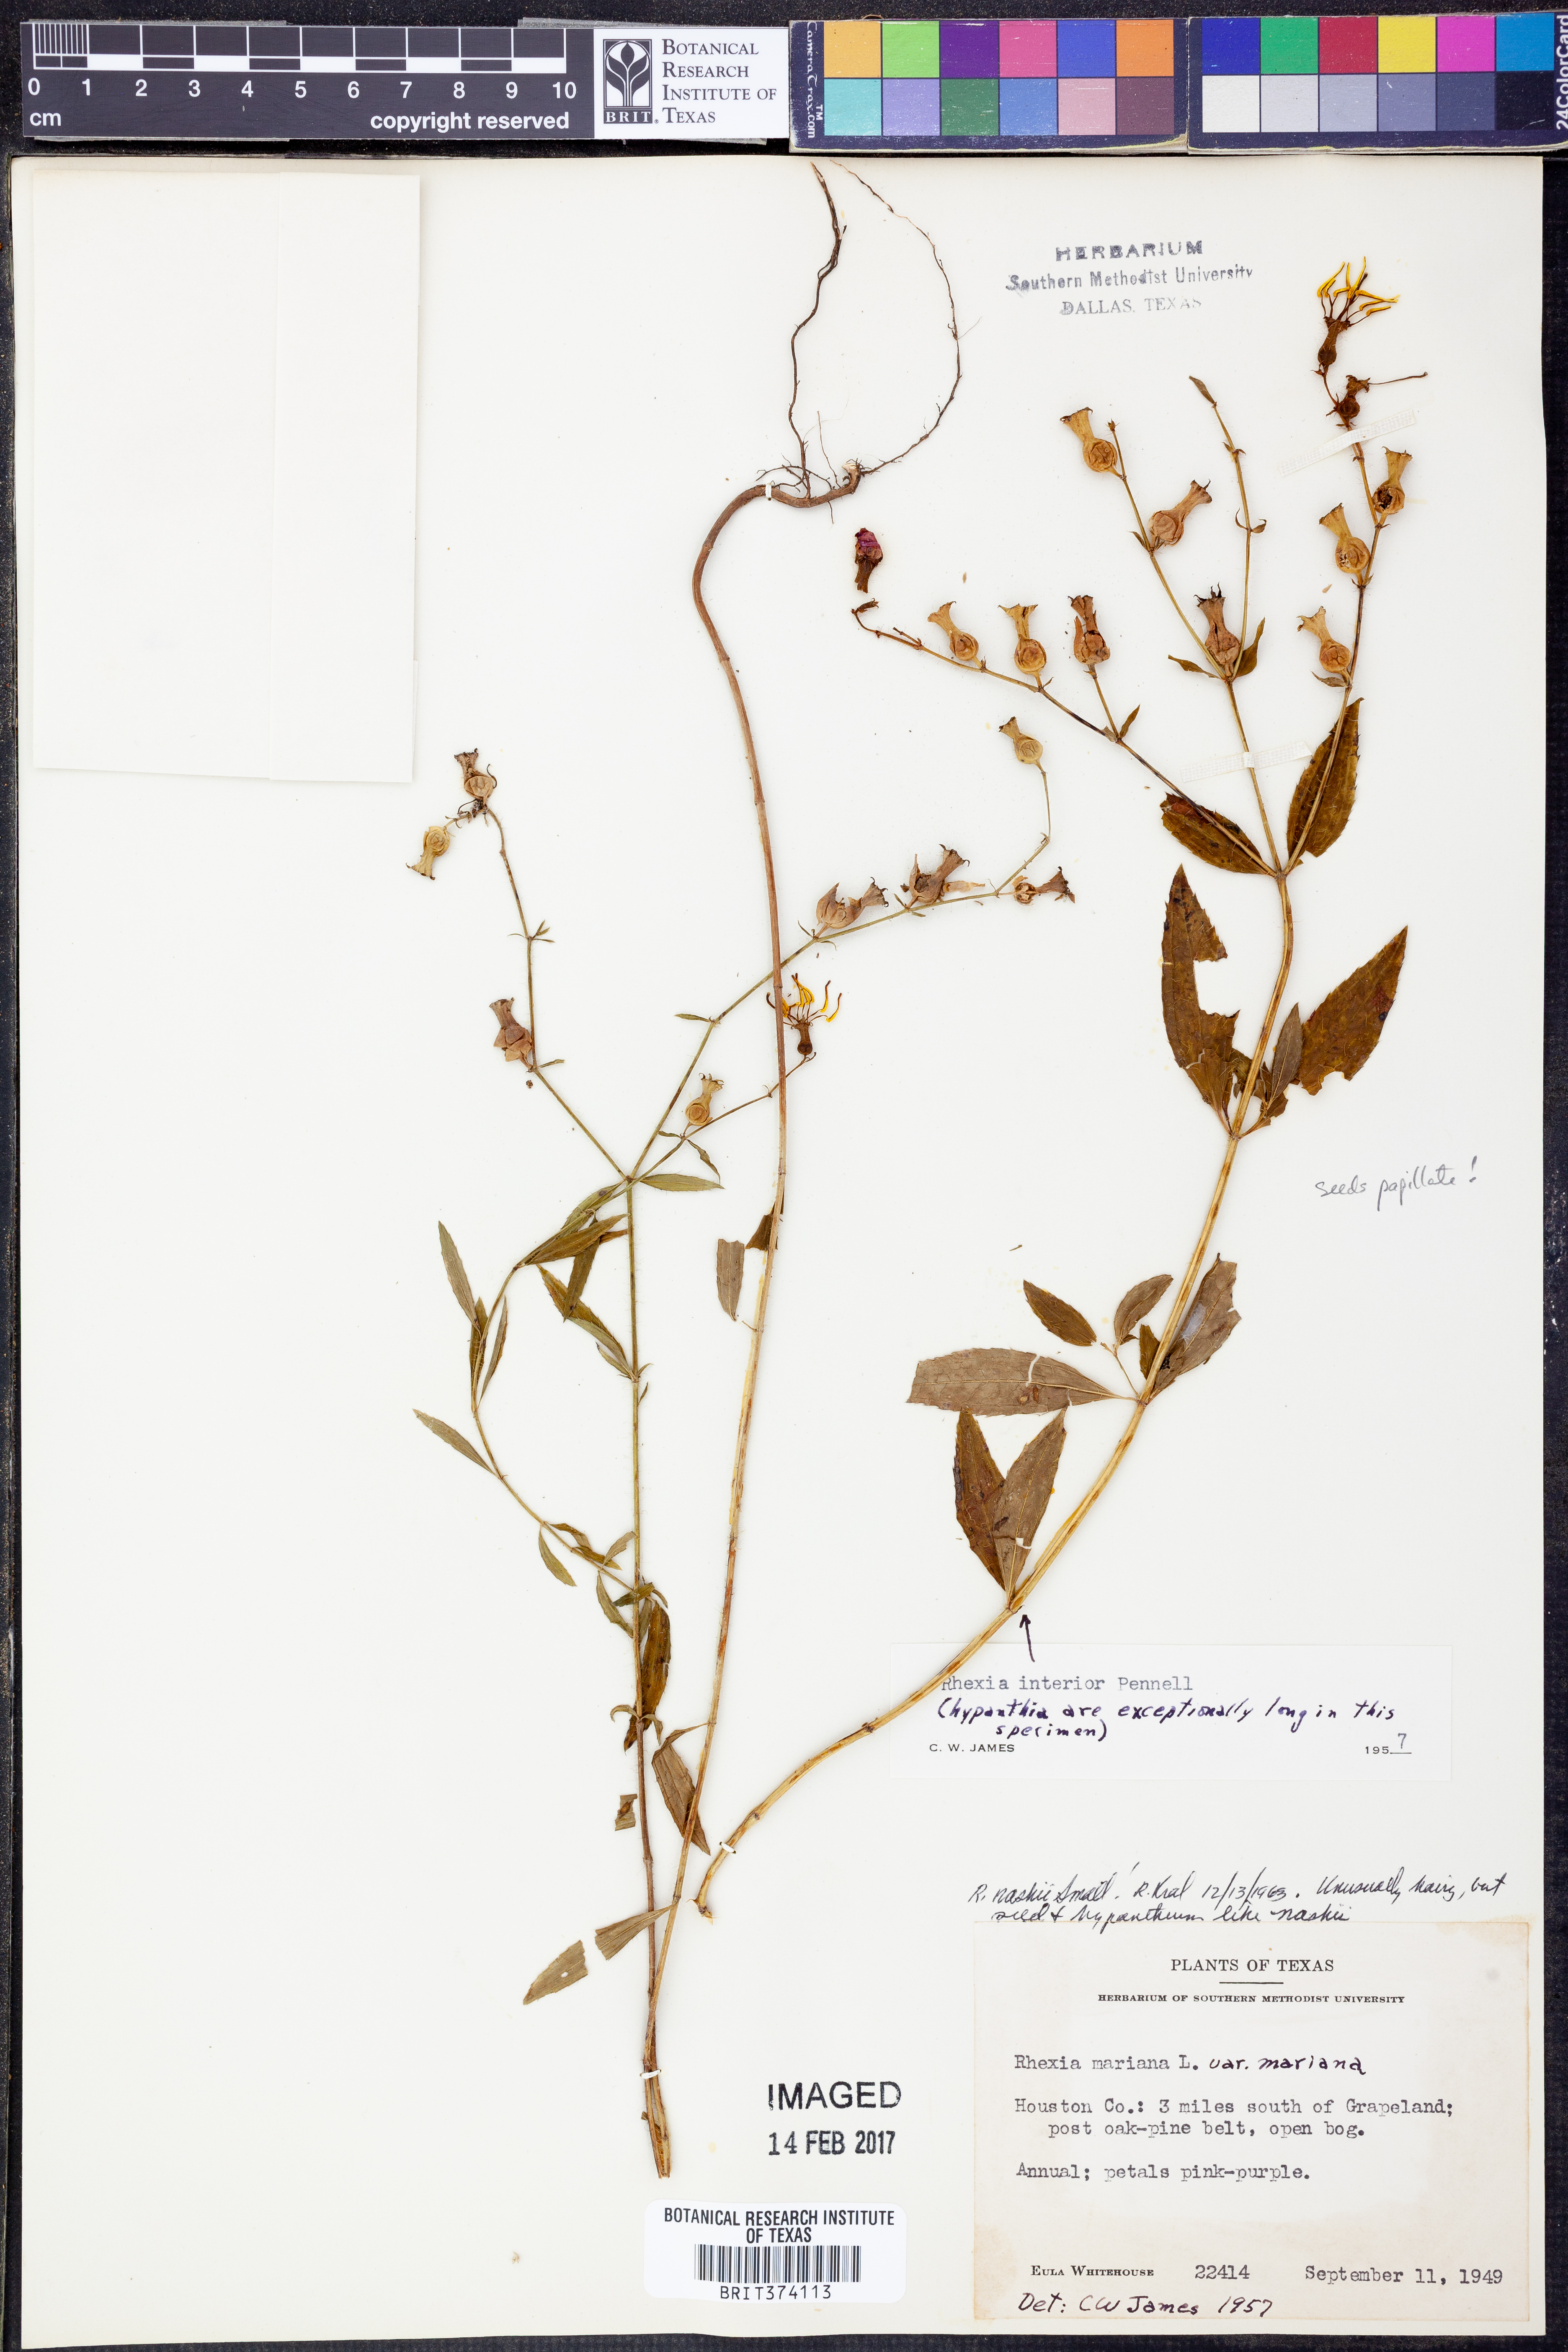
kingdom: Plantae
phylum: Tracheophyta
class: Magnoliopsida
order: Myrtales
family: Melastomataceae
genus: Rhexia
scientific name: Rhexia nashii
